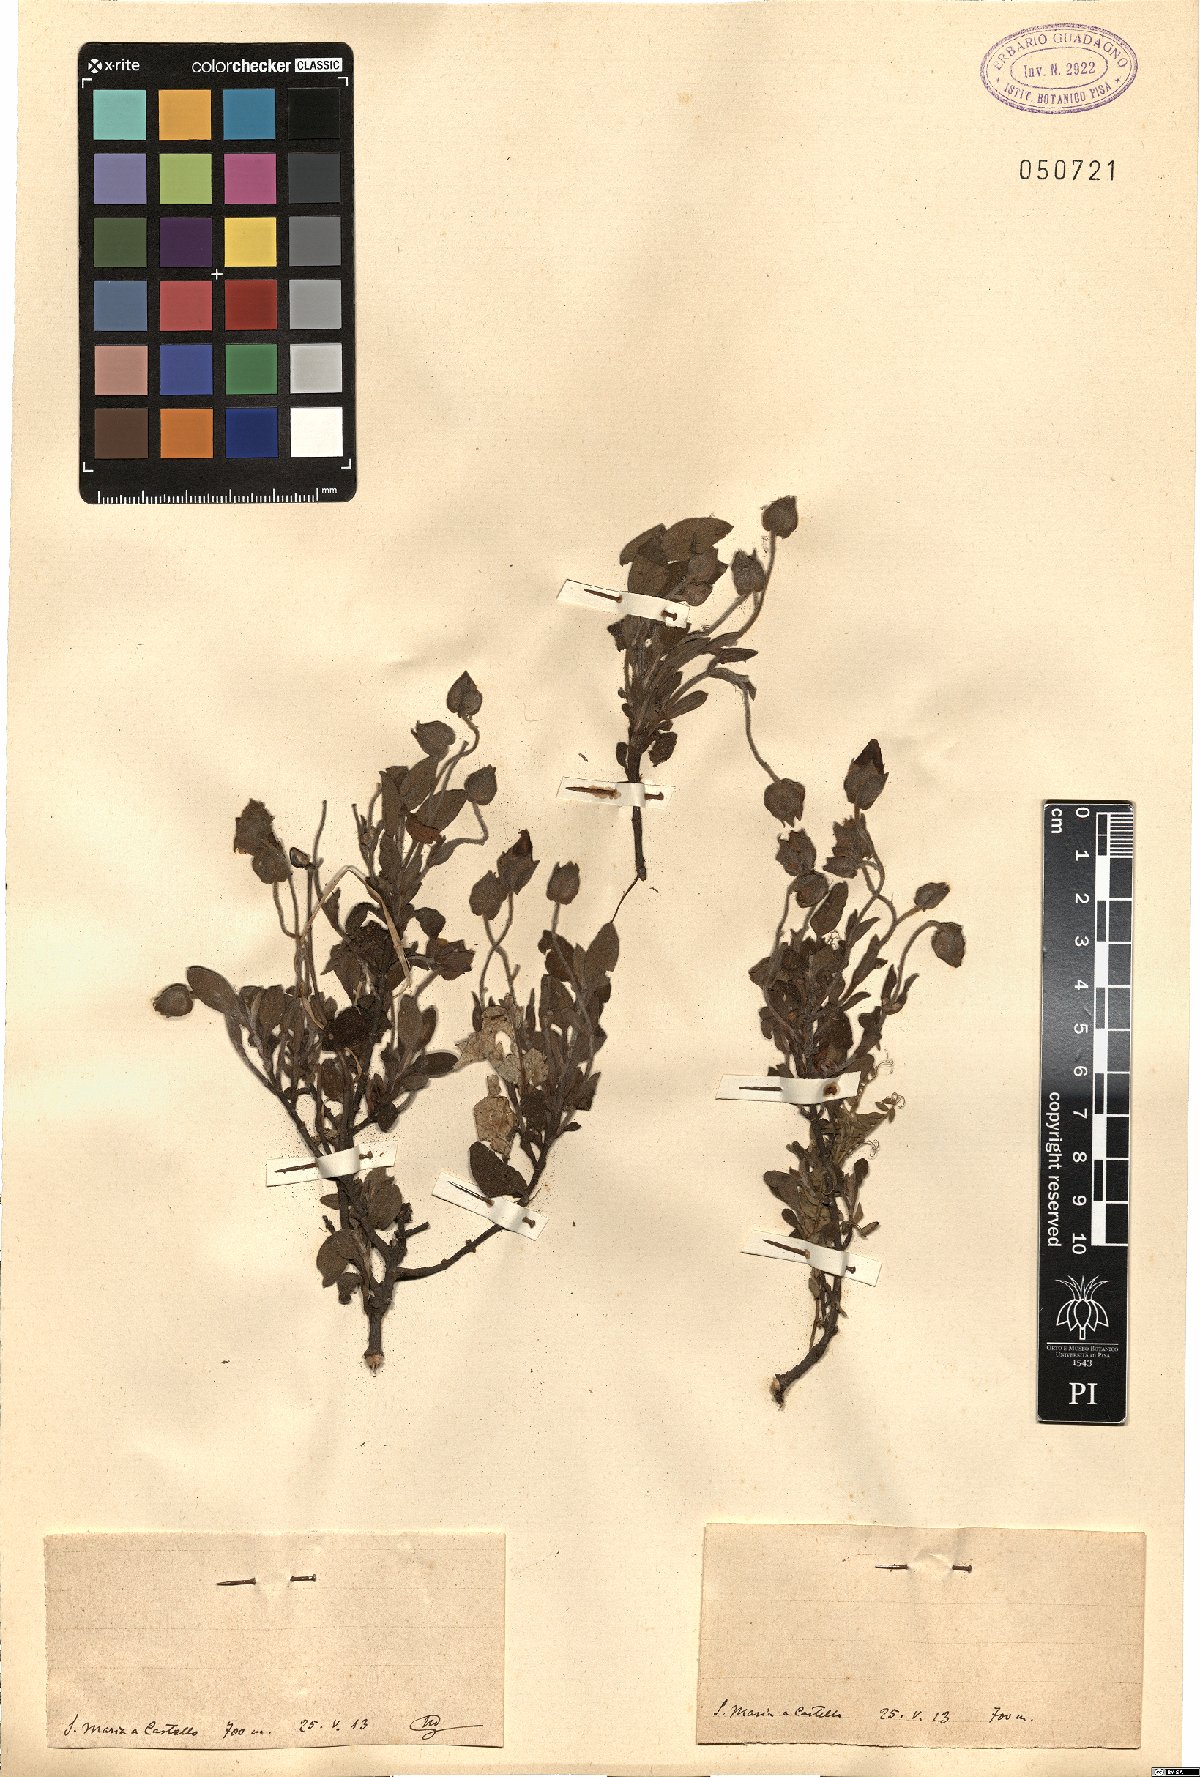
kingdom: Plantae
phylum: Tracheophyta
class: Magnoliopsida
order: Malvales
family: Cistaceae
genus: Cistus
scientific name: Cistus
